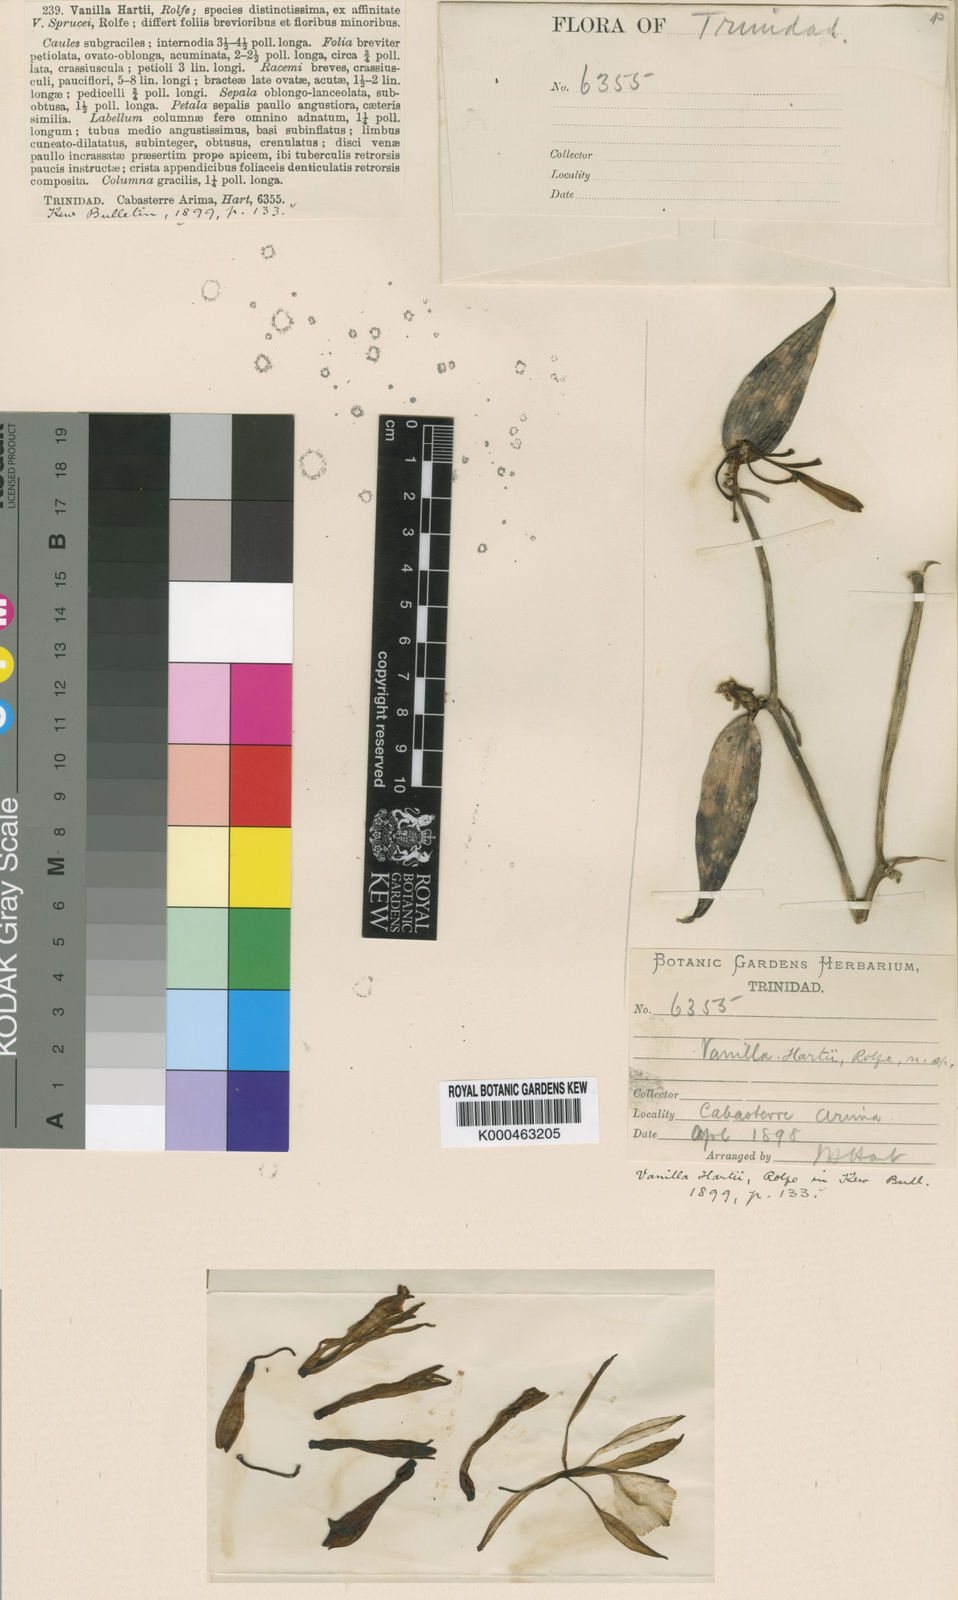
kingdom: Plantae
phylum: Tracheophyta
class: Liliopsida
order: Asparagales
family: Orchidaceae
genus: Vanilla
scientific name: Vanilla hartii
